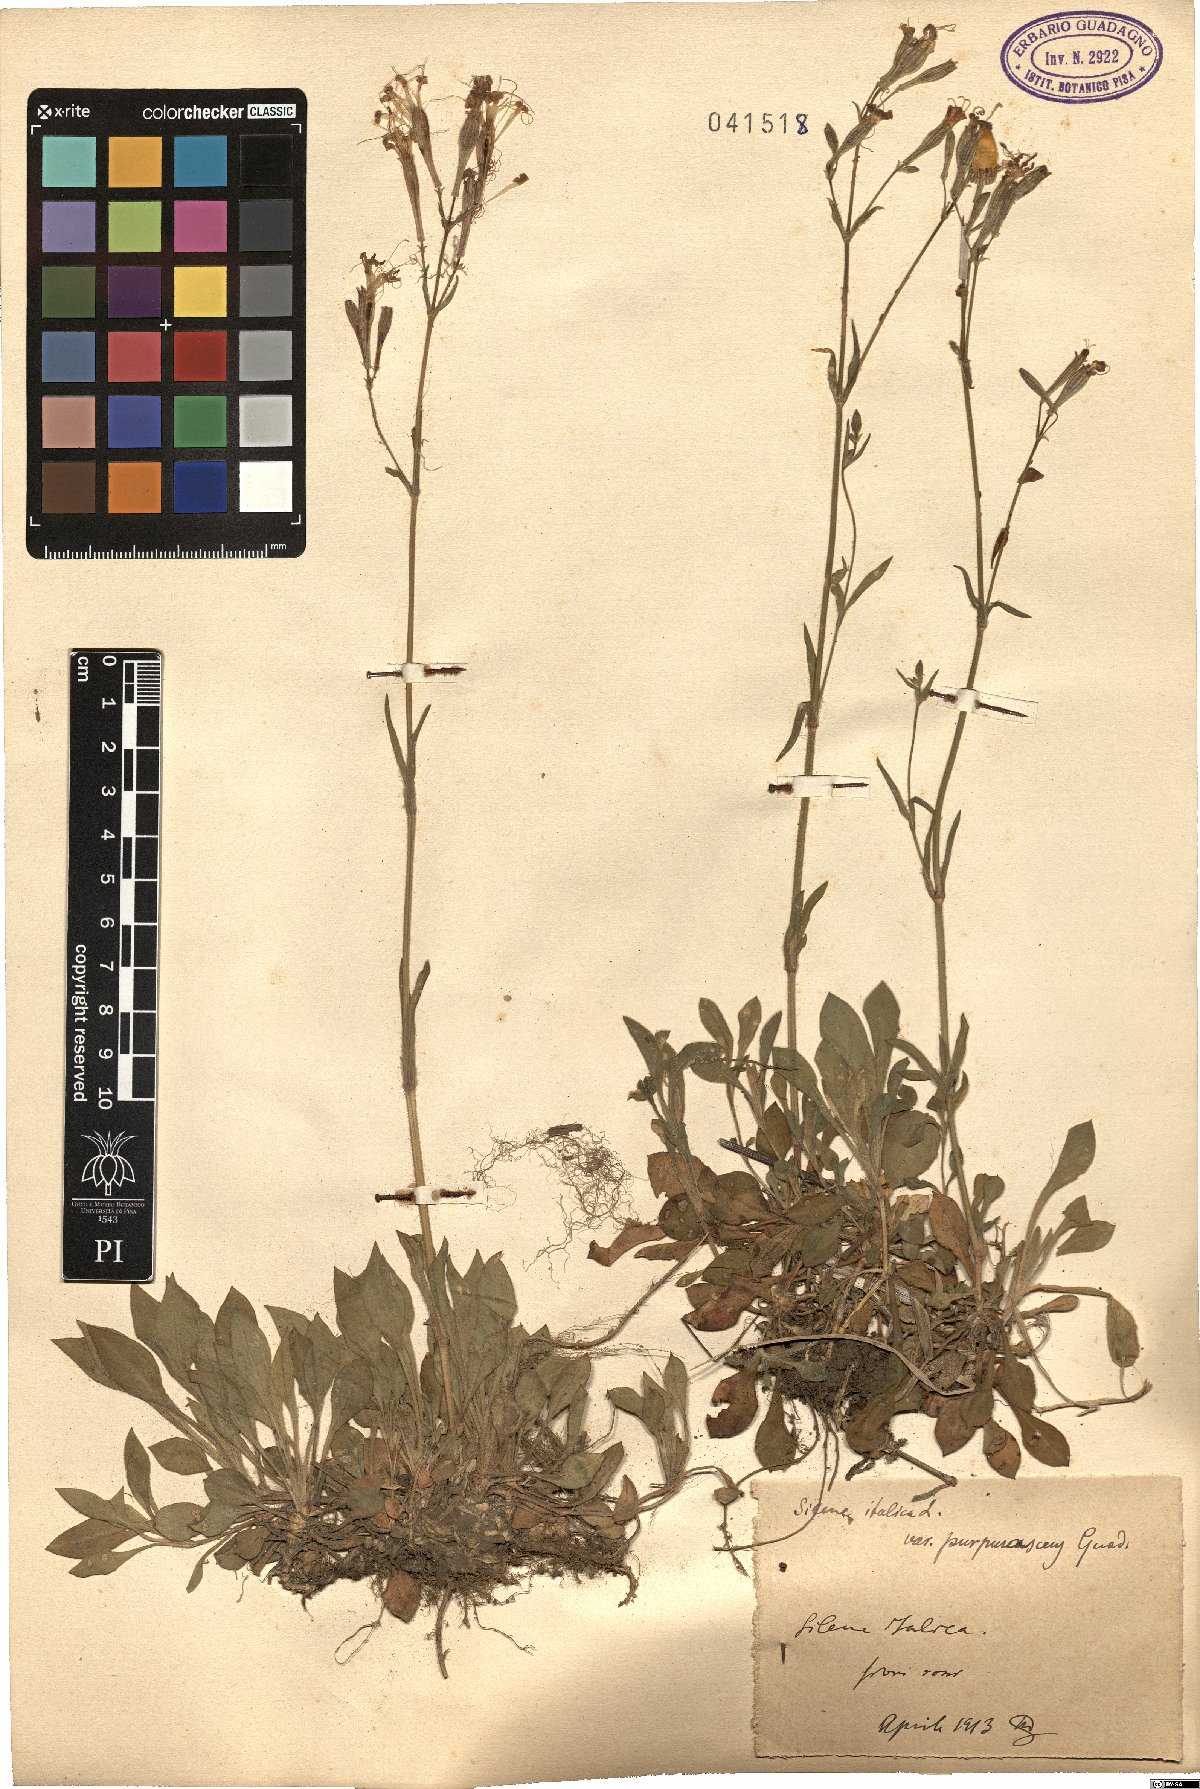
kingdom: Plantae
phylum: Tracheophyta
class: Magnoliopsida
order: Caryophyllales
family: Caryophyllaceae
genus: Silene
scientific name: Silene italica
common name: Italian catchfly
